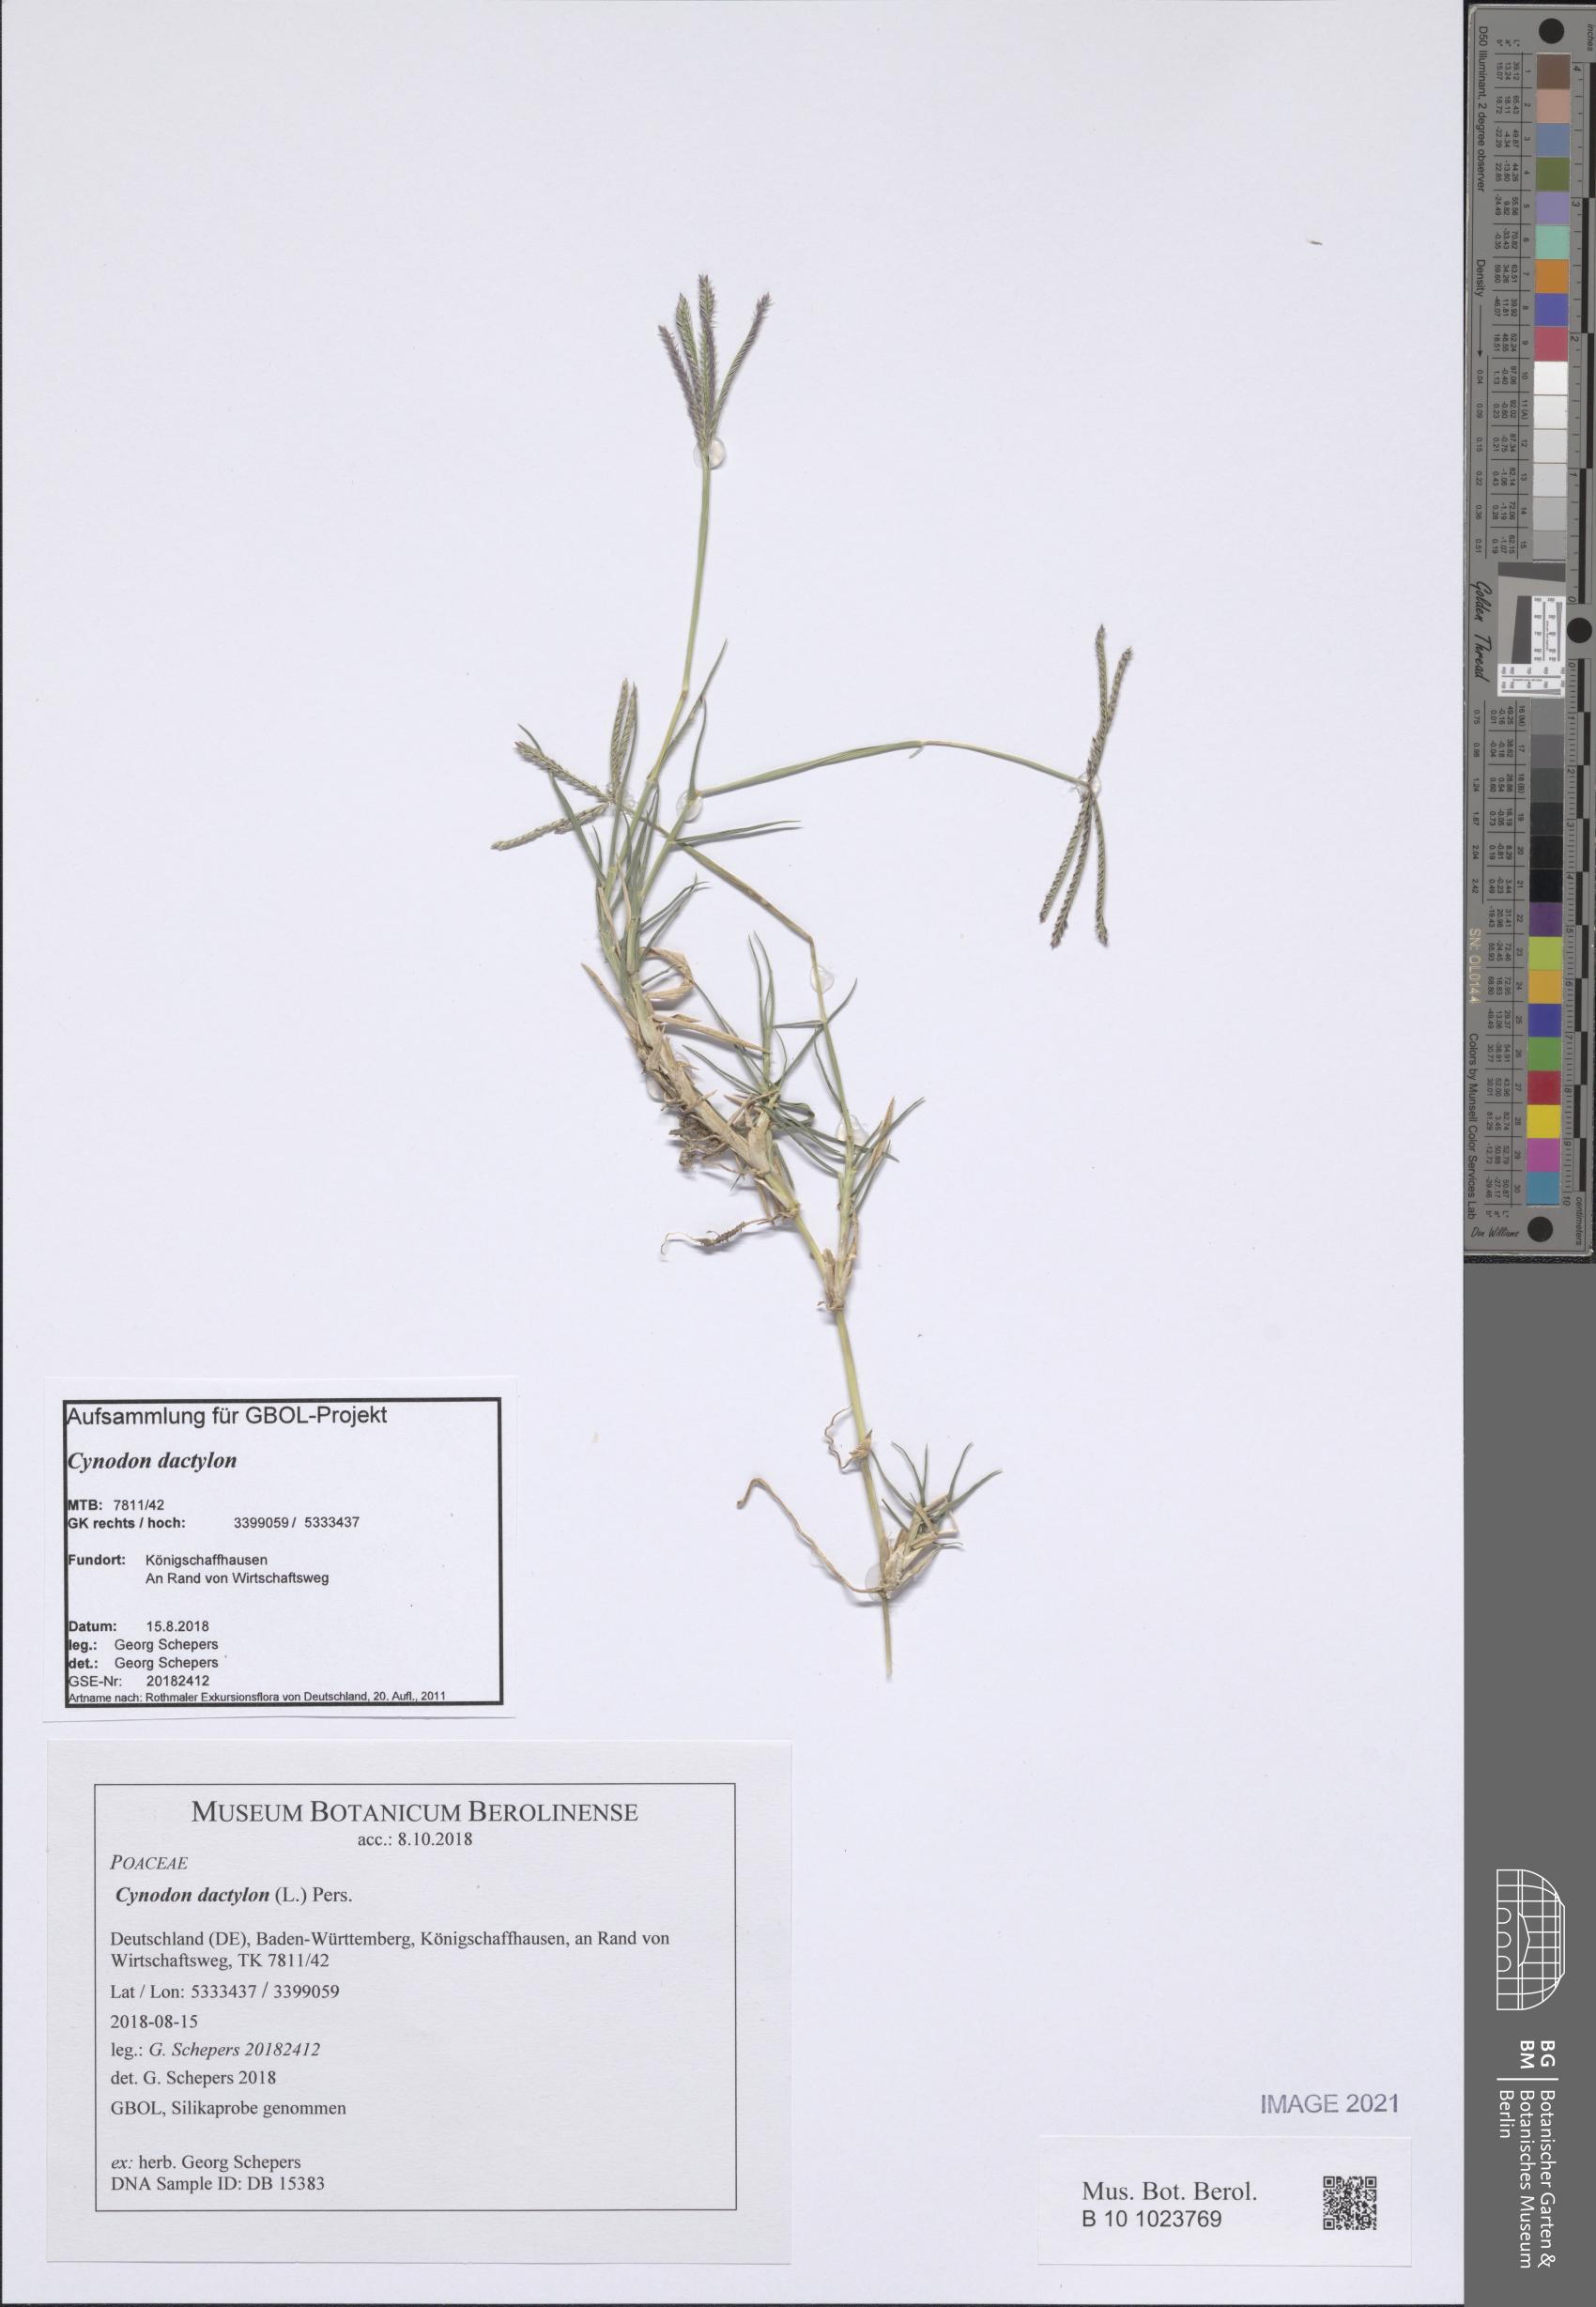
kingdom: Plantae
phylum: Tracheophyta
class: Liliopsida
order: Poales
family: Poaceae
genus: Cynodon
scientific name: Cynodon dactylon
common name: Bermuda grass
